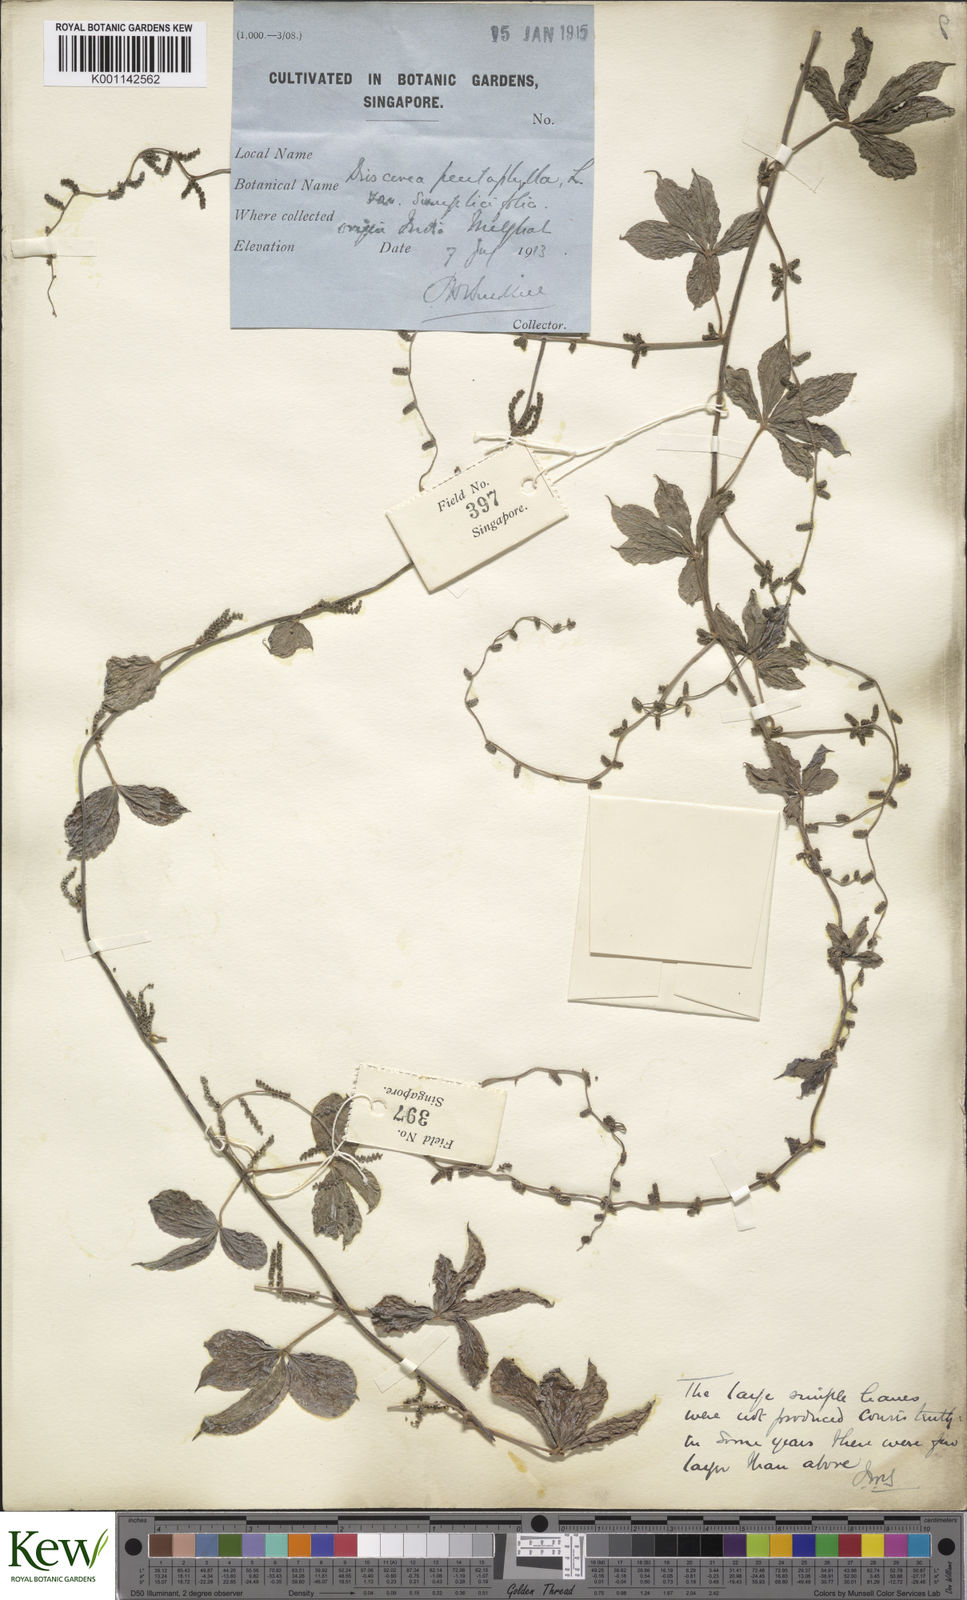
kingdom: Plantae
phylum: Tracheophyta
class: Liliopsida
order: Dioscoreales
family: Dioscoreaceae
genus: Dioscorea
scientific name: Dioscorea pentaphylla
